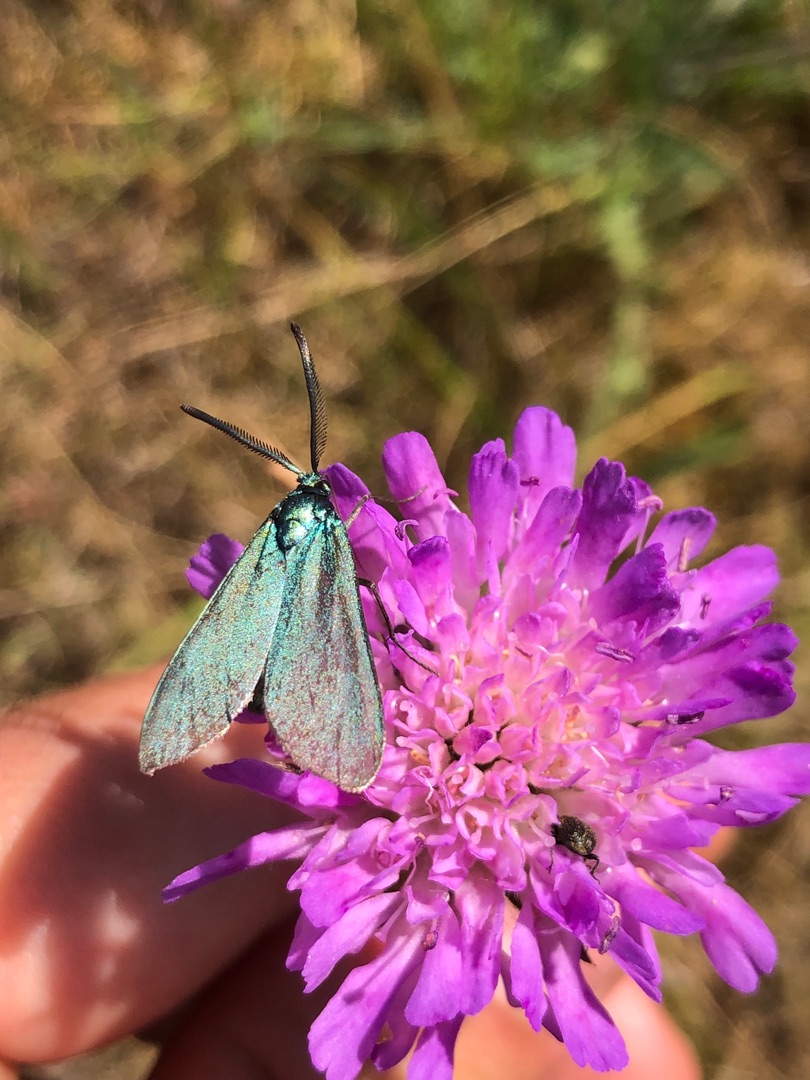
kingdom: Animalia
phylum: Arthropoda
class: Insecta
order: Lepidoptera
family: Zygaenidae
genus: Adscita
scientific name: Adscita statices
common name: Metalvinge
